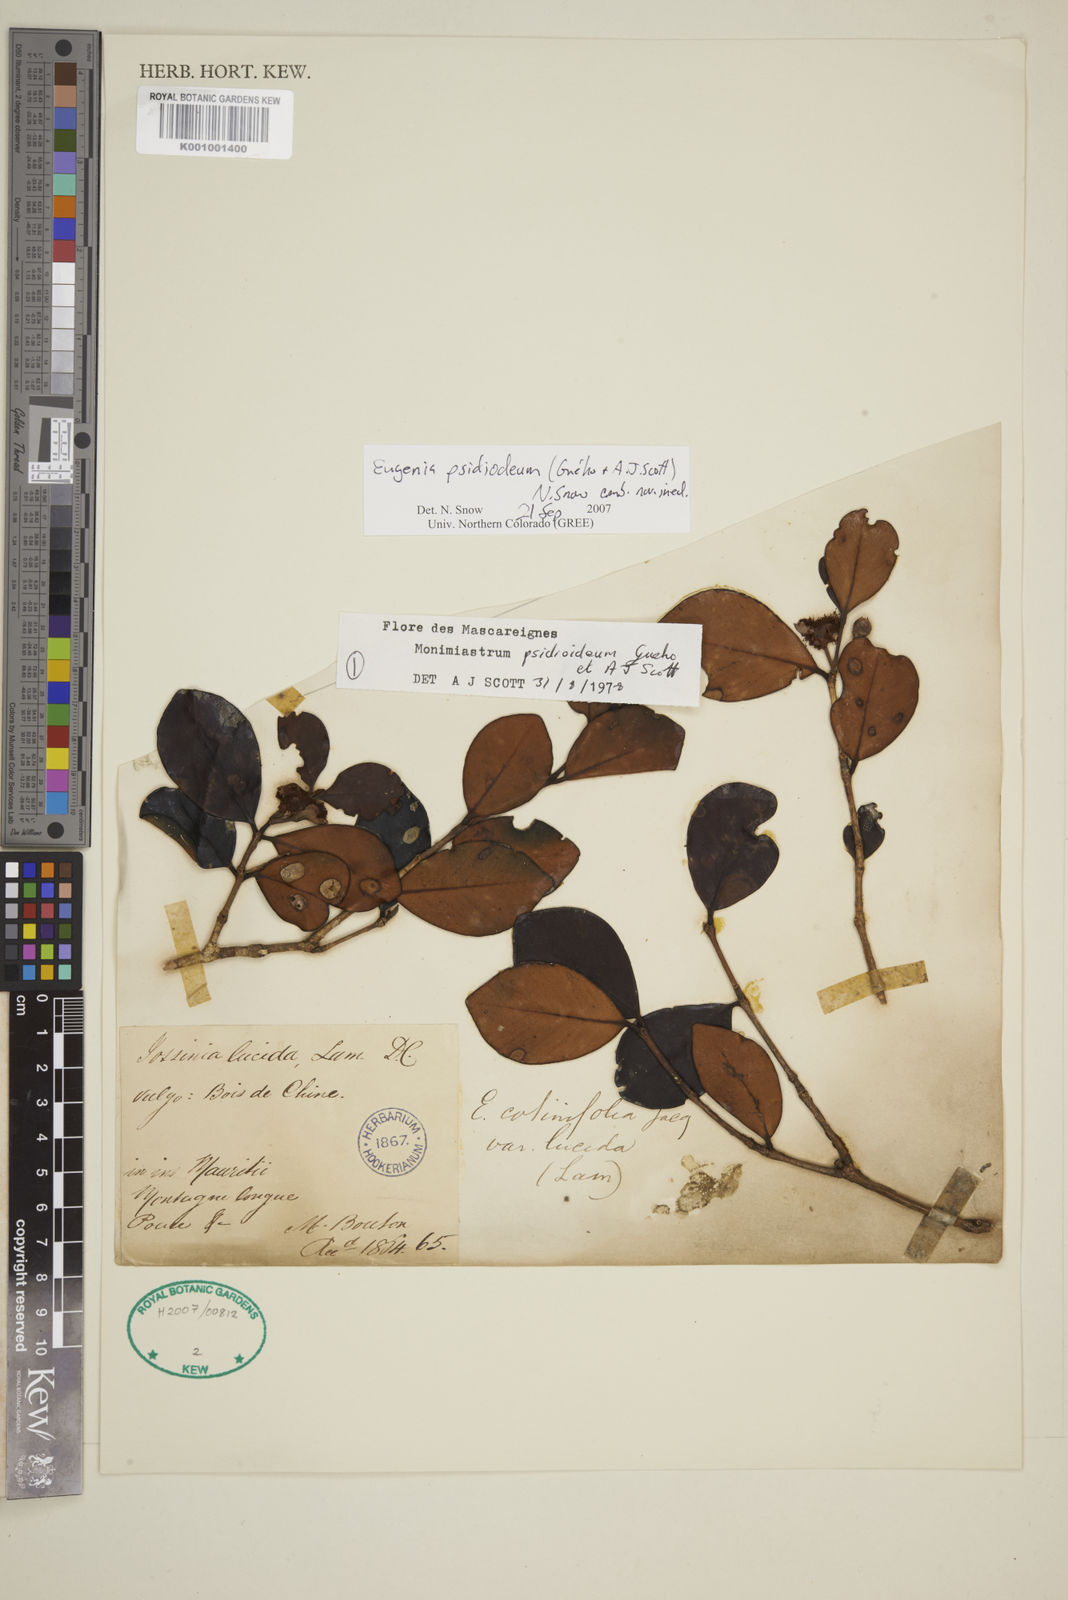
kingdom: Plantae
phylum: Tracheophyta
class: Magnoliopsida
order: Myrtales
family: Myrtaceae
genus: Eugenia
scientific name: Eugenia psidioidea
